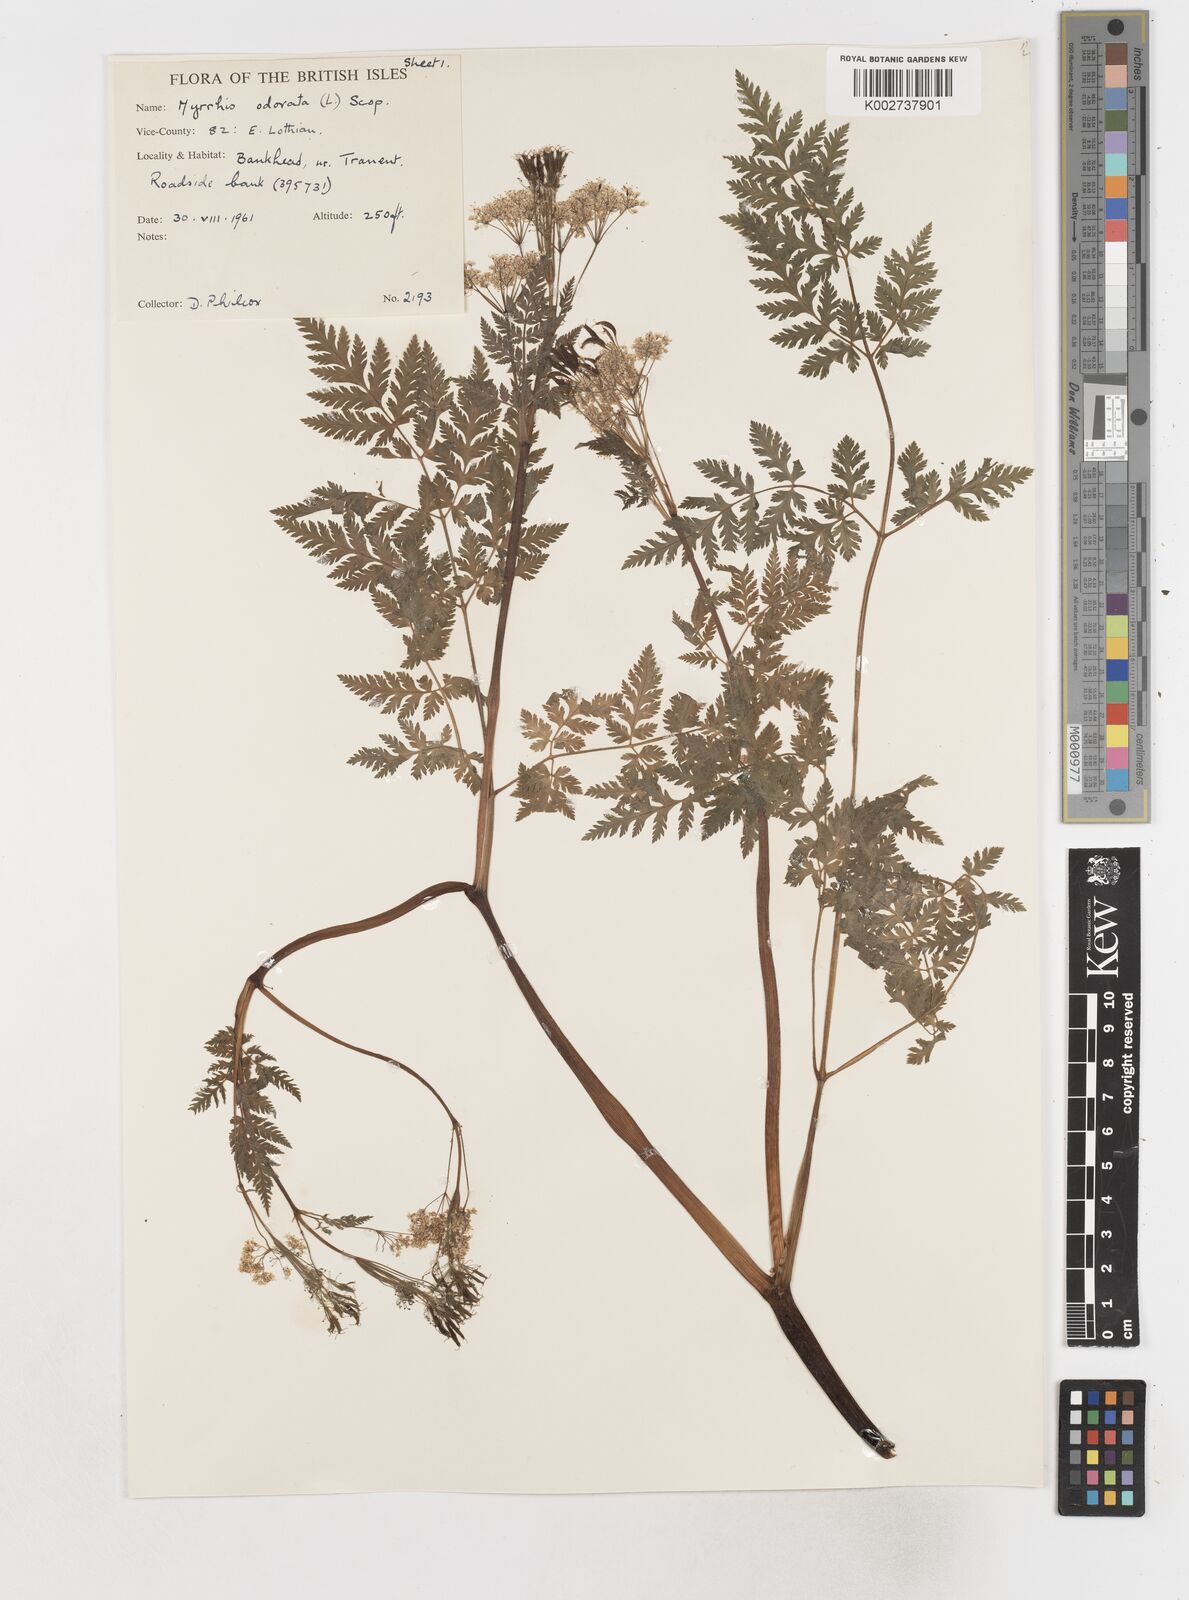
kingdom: Plantae
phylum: Tracheophyta
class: Magnoliopsida
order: Apiales
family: Apiaceae
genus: Myrrhis
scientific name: Myrrhis odorata
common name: Sweet cicely
